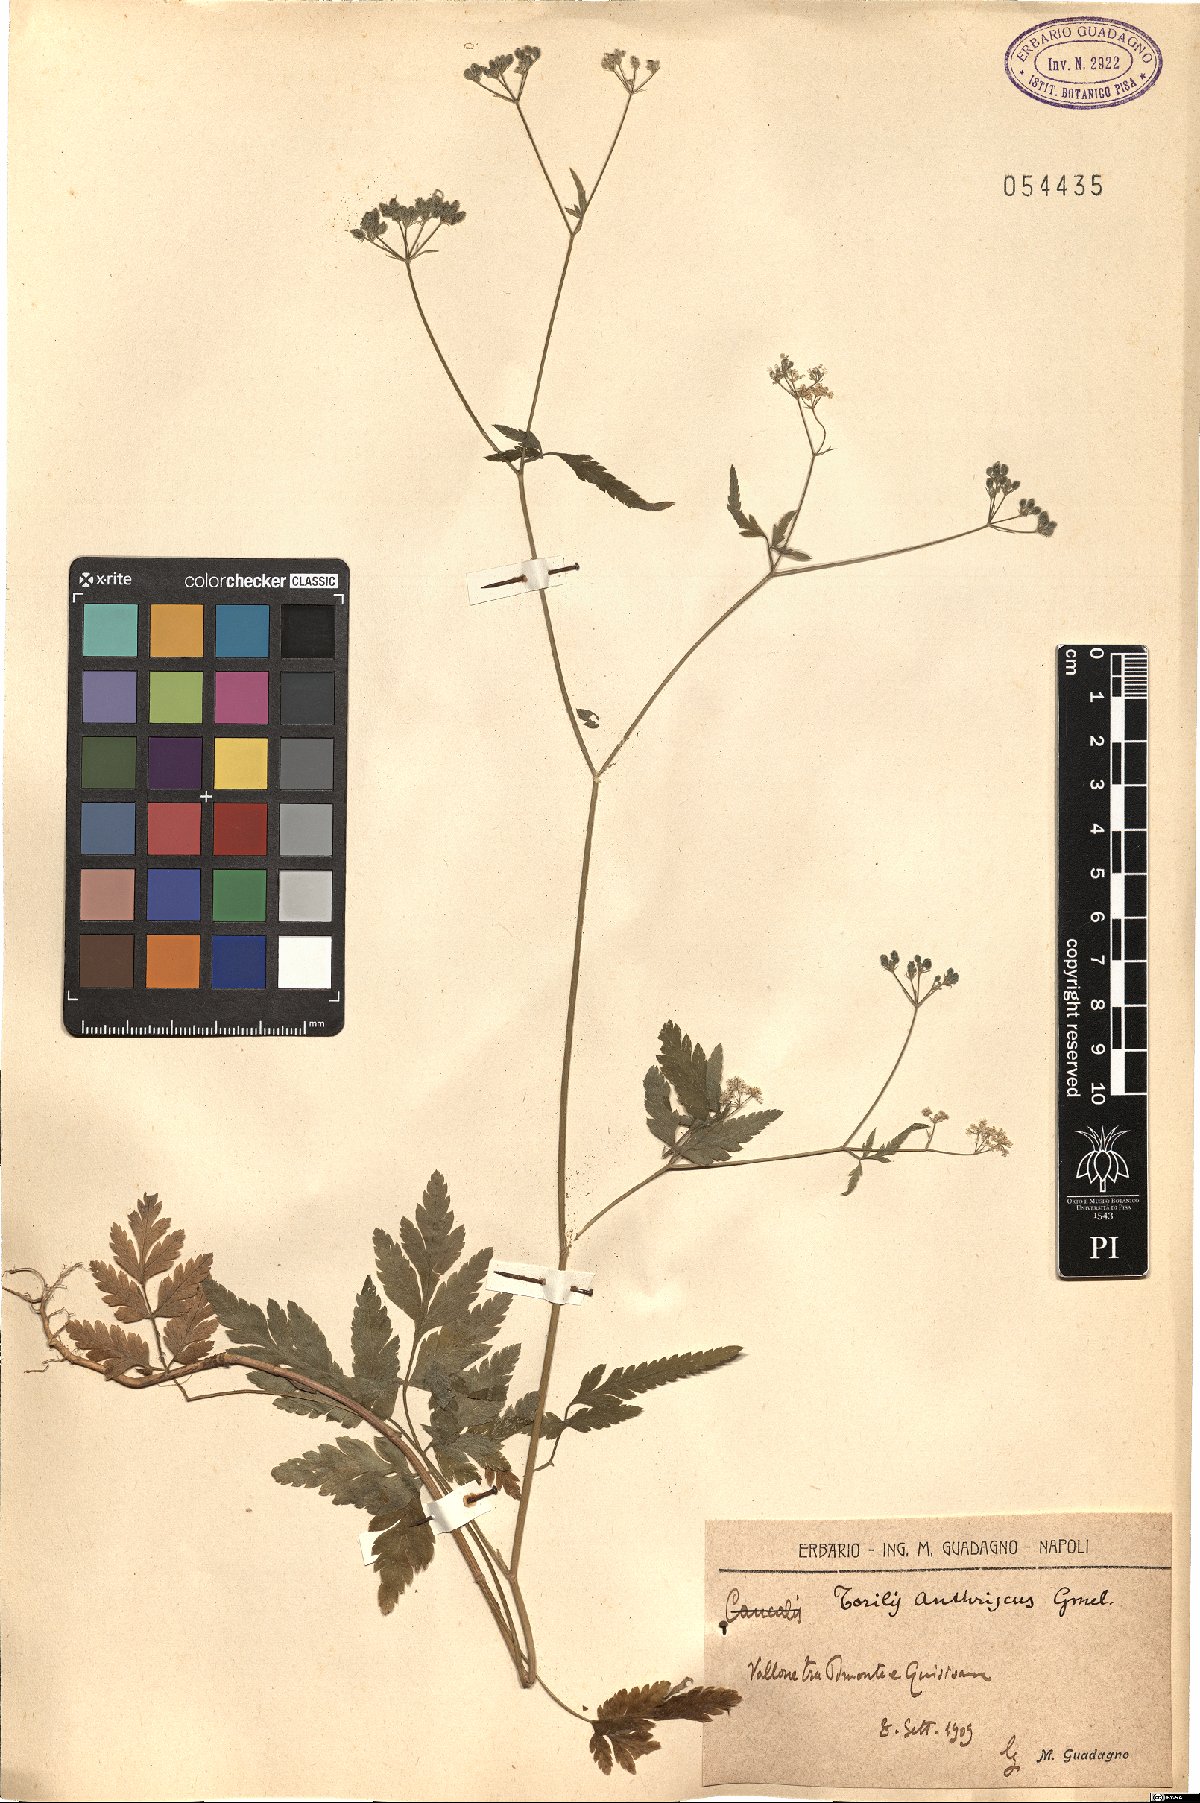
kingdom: Plantae
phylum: Tracheophyta
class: Magnoliopsida
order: Apiales
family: Apiaceae
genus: Torilis
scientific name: Torilis japonica
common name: Upright hedge-parsley
